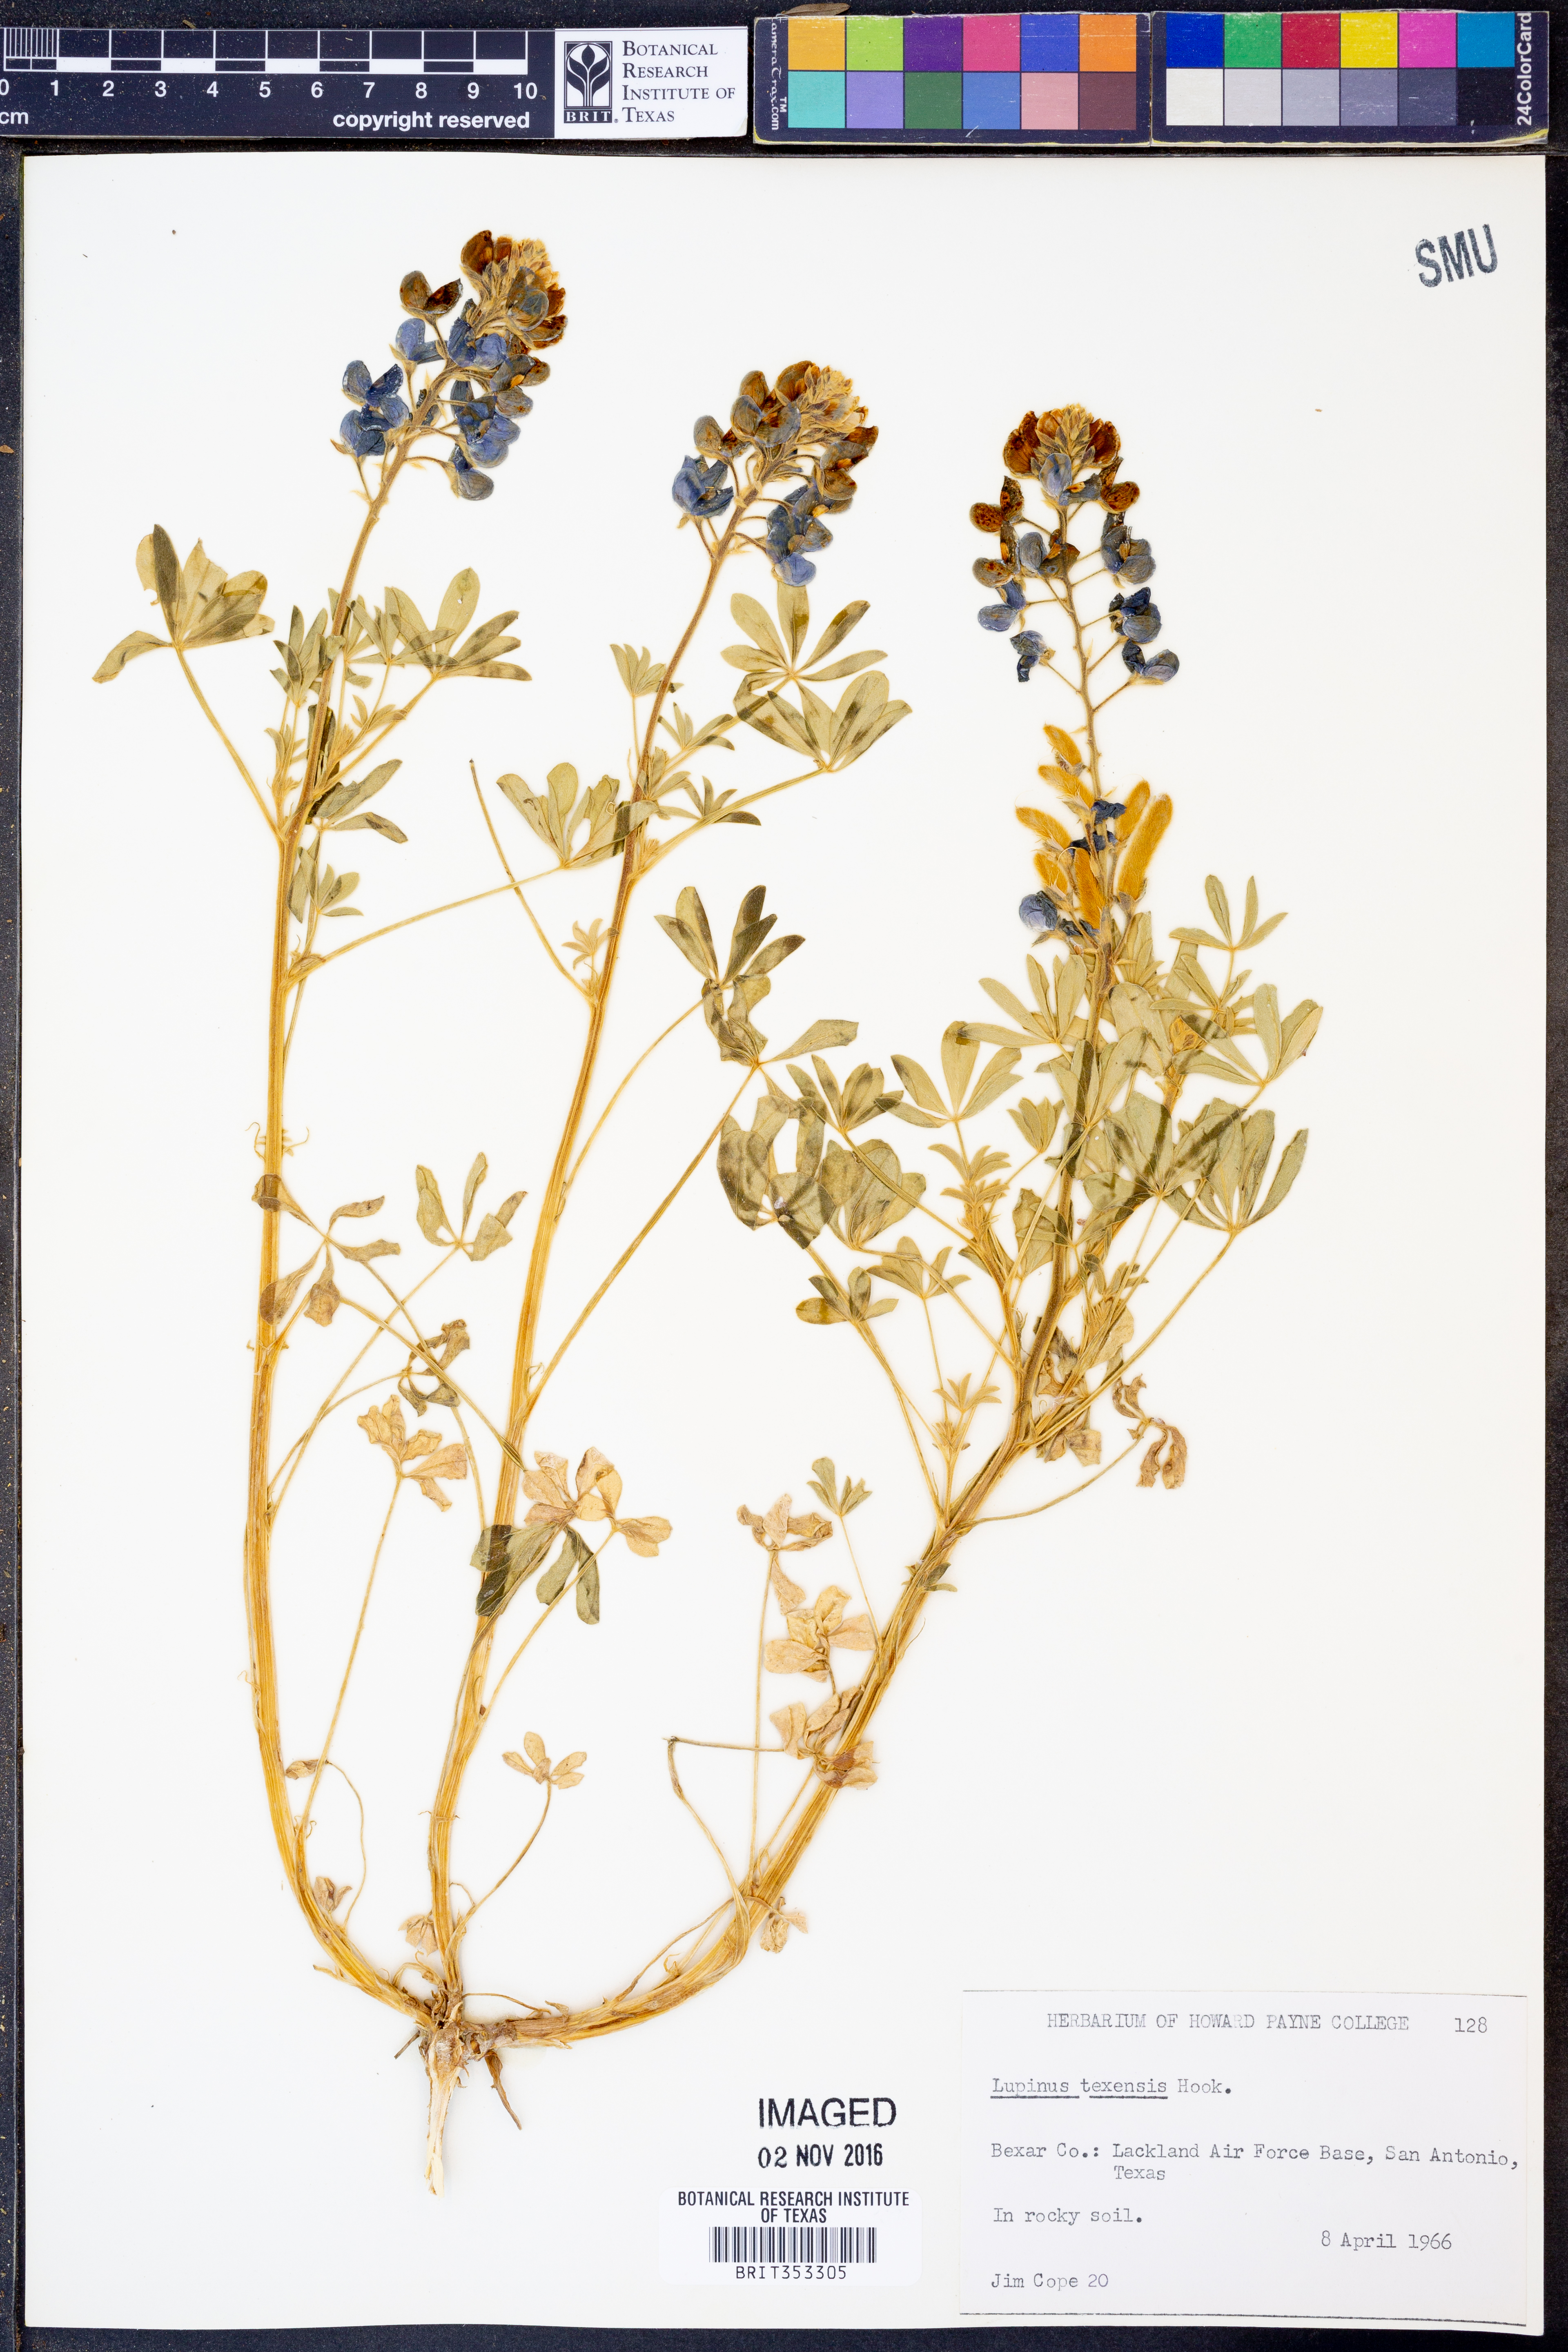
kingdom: Plantae
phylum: Tracheophyta
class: Magnoliopsida
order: Fabales
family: Fabaceae
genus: Lupinus
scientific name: Lupinus texensis
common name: Texas bluebonnet
